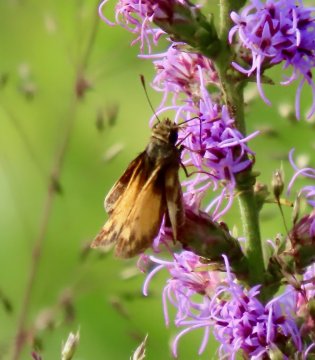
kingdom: Animalia
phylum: Arthropoda
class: Insecta
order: Lepidoptera
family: Hesperiidae
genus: Lon
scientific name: Lon zabulon
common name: Zabulon Skipper
